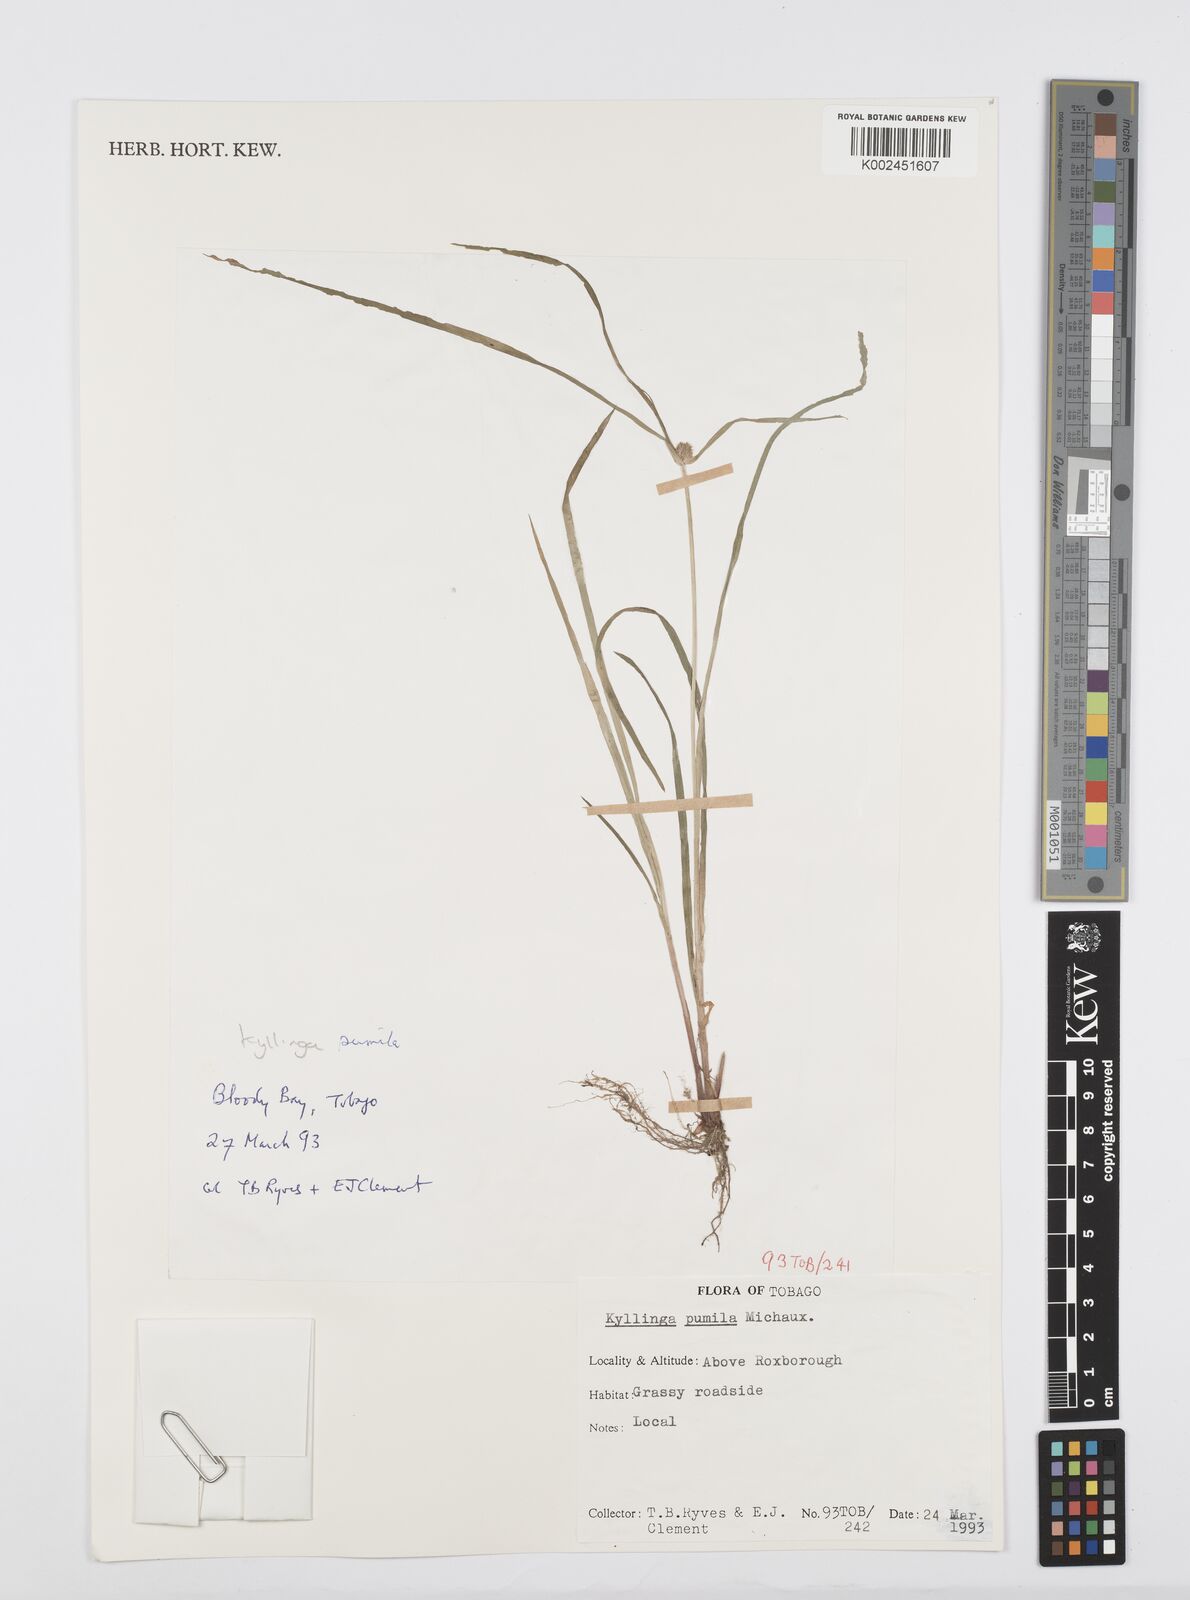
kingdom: Plantae
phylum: Tracheophyta
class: Liliopsida
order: Poales
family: Cyperaceae
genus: Cyperus
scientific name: Cyperus
